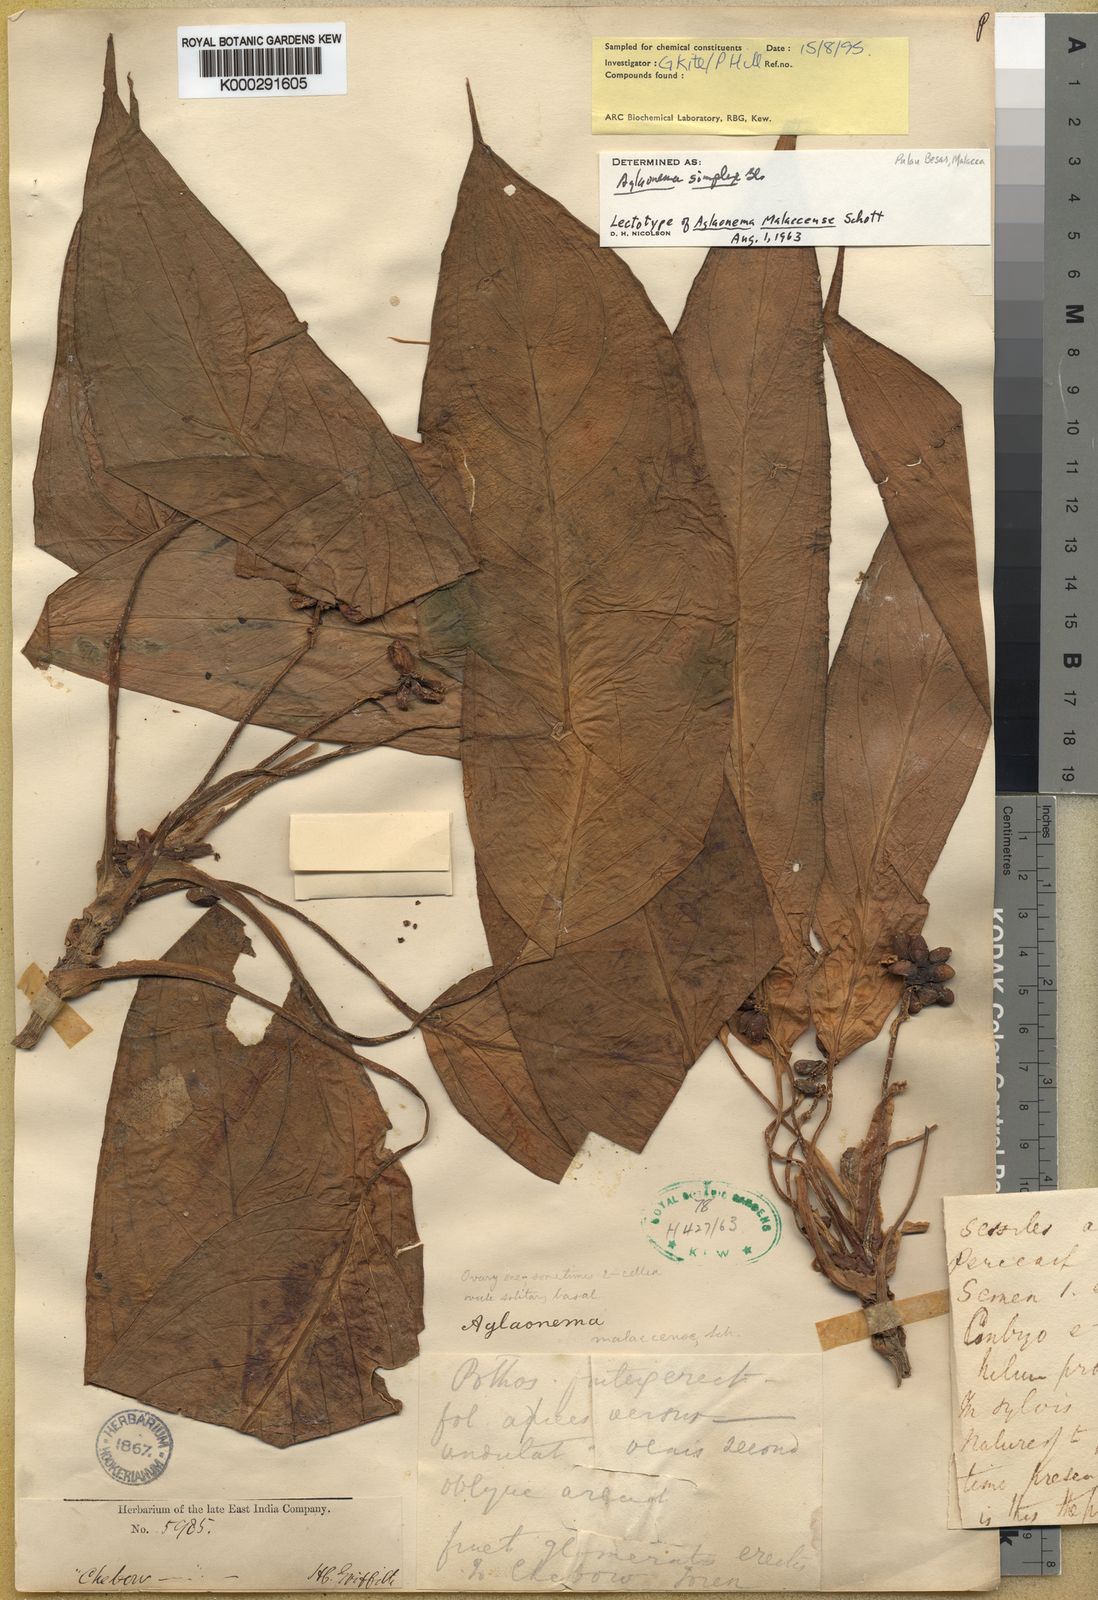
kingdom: Plantae
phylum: Tracheophyta
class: Liliopsida
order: Alismatales
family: Araceae
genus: Aglaonema
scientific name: Aglaonema simplex
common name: Malayan-sword
